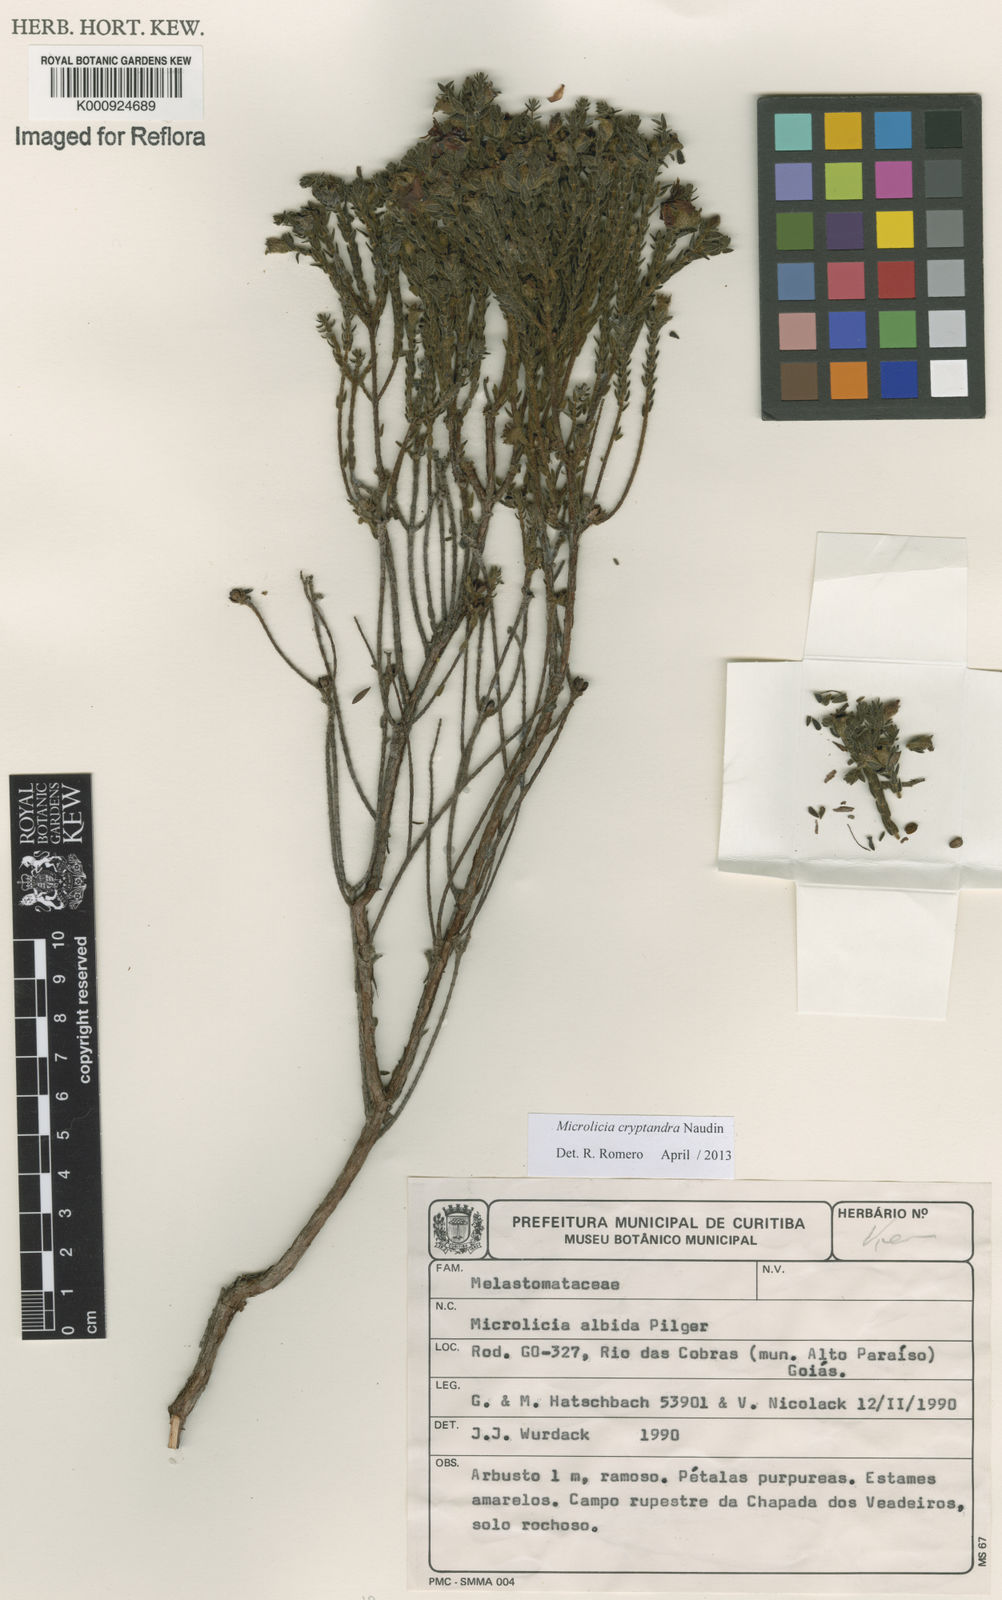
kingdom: Plantae
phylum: Tracheophyta
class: Magnoliopsida
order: Myrtales
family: Melastomataceae
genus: Microlicia
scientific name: Microlicia cryptandra
